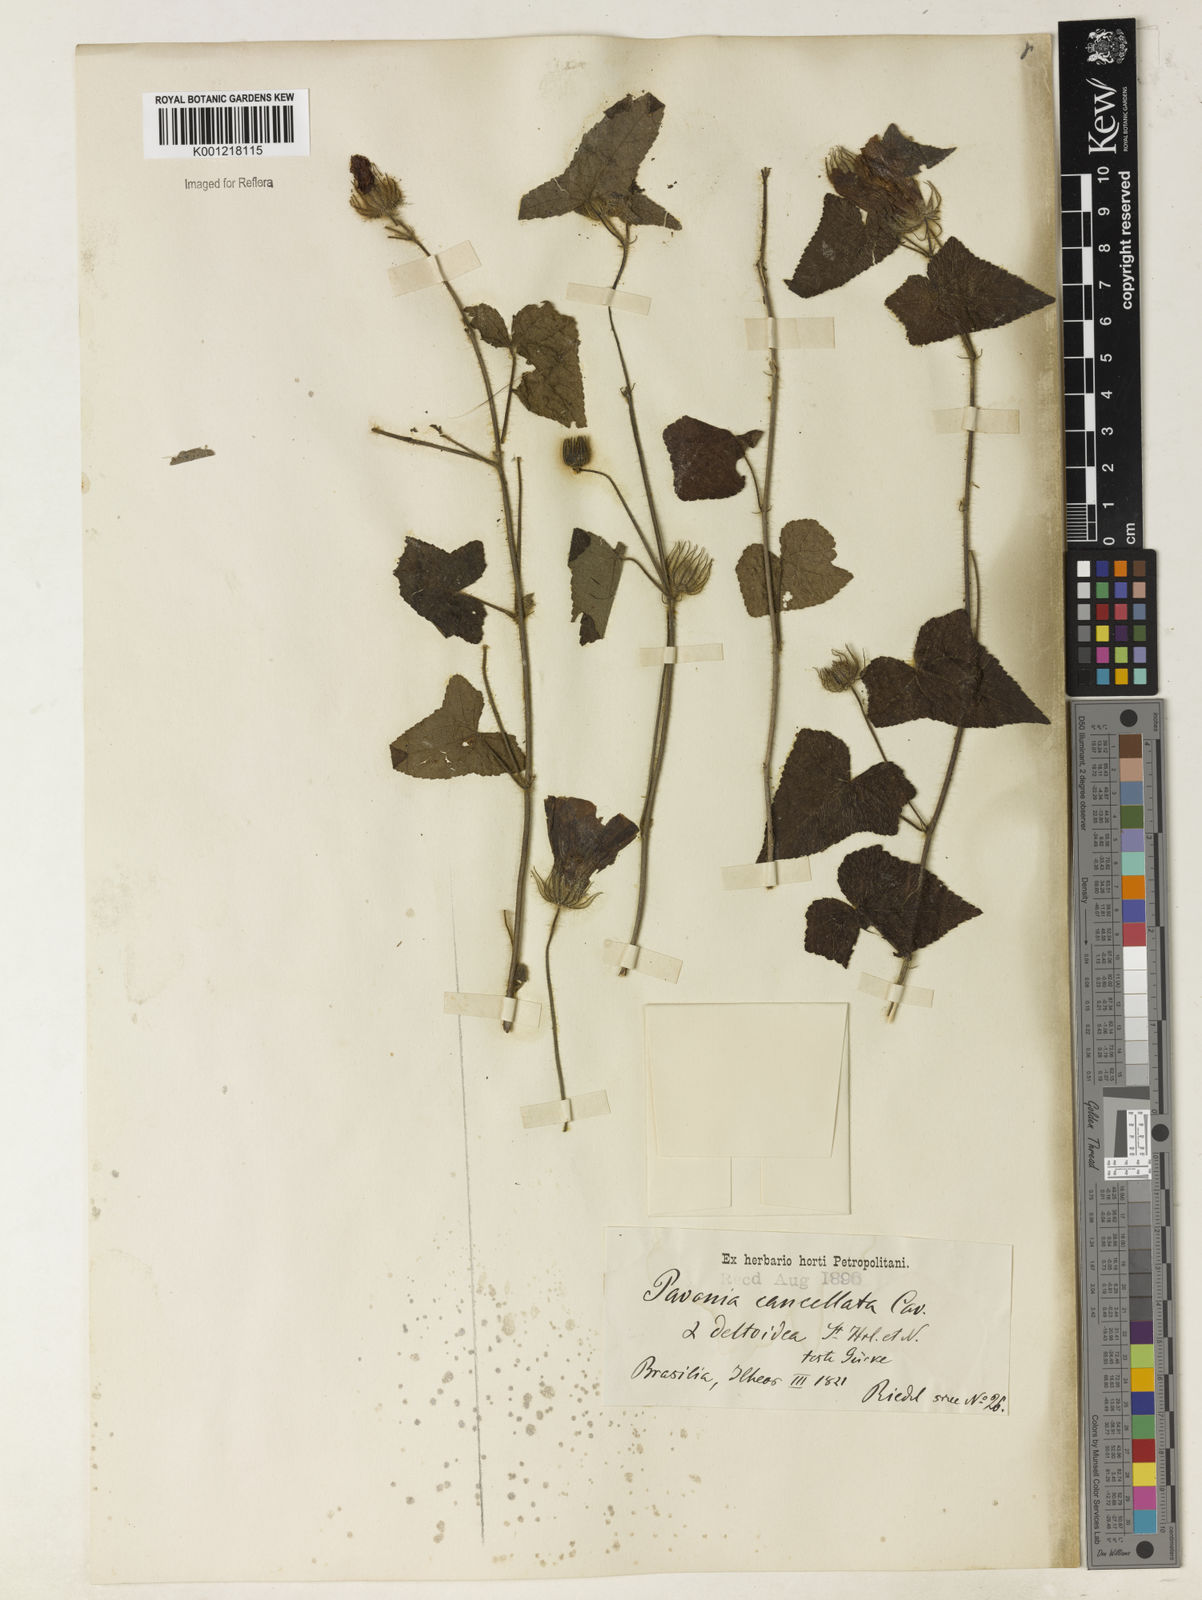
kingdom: Plantae
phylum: Tracheophyta
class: Magnoliopsida
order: Malvales
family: Malvaceae
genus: Pavonia
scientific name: Pavonia cancellata
